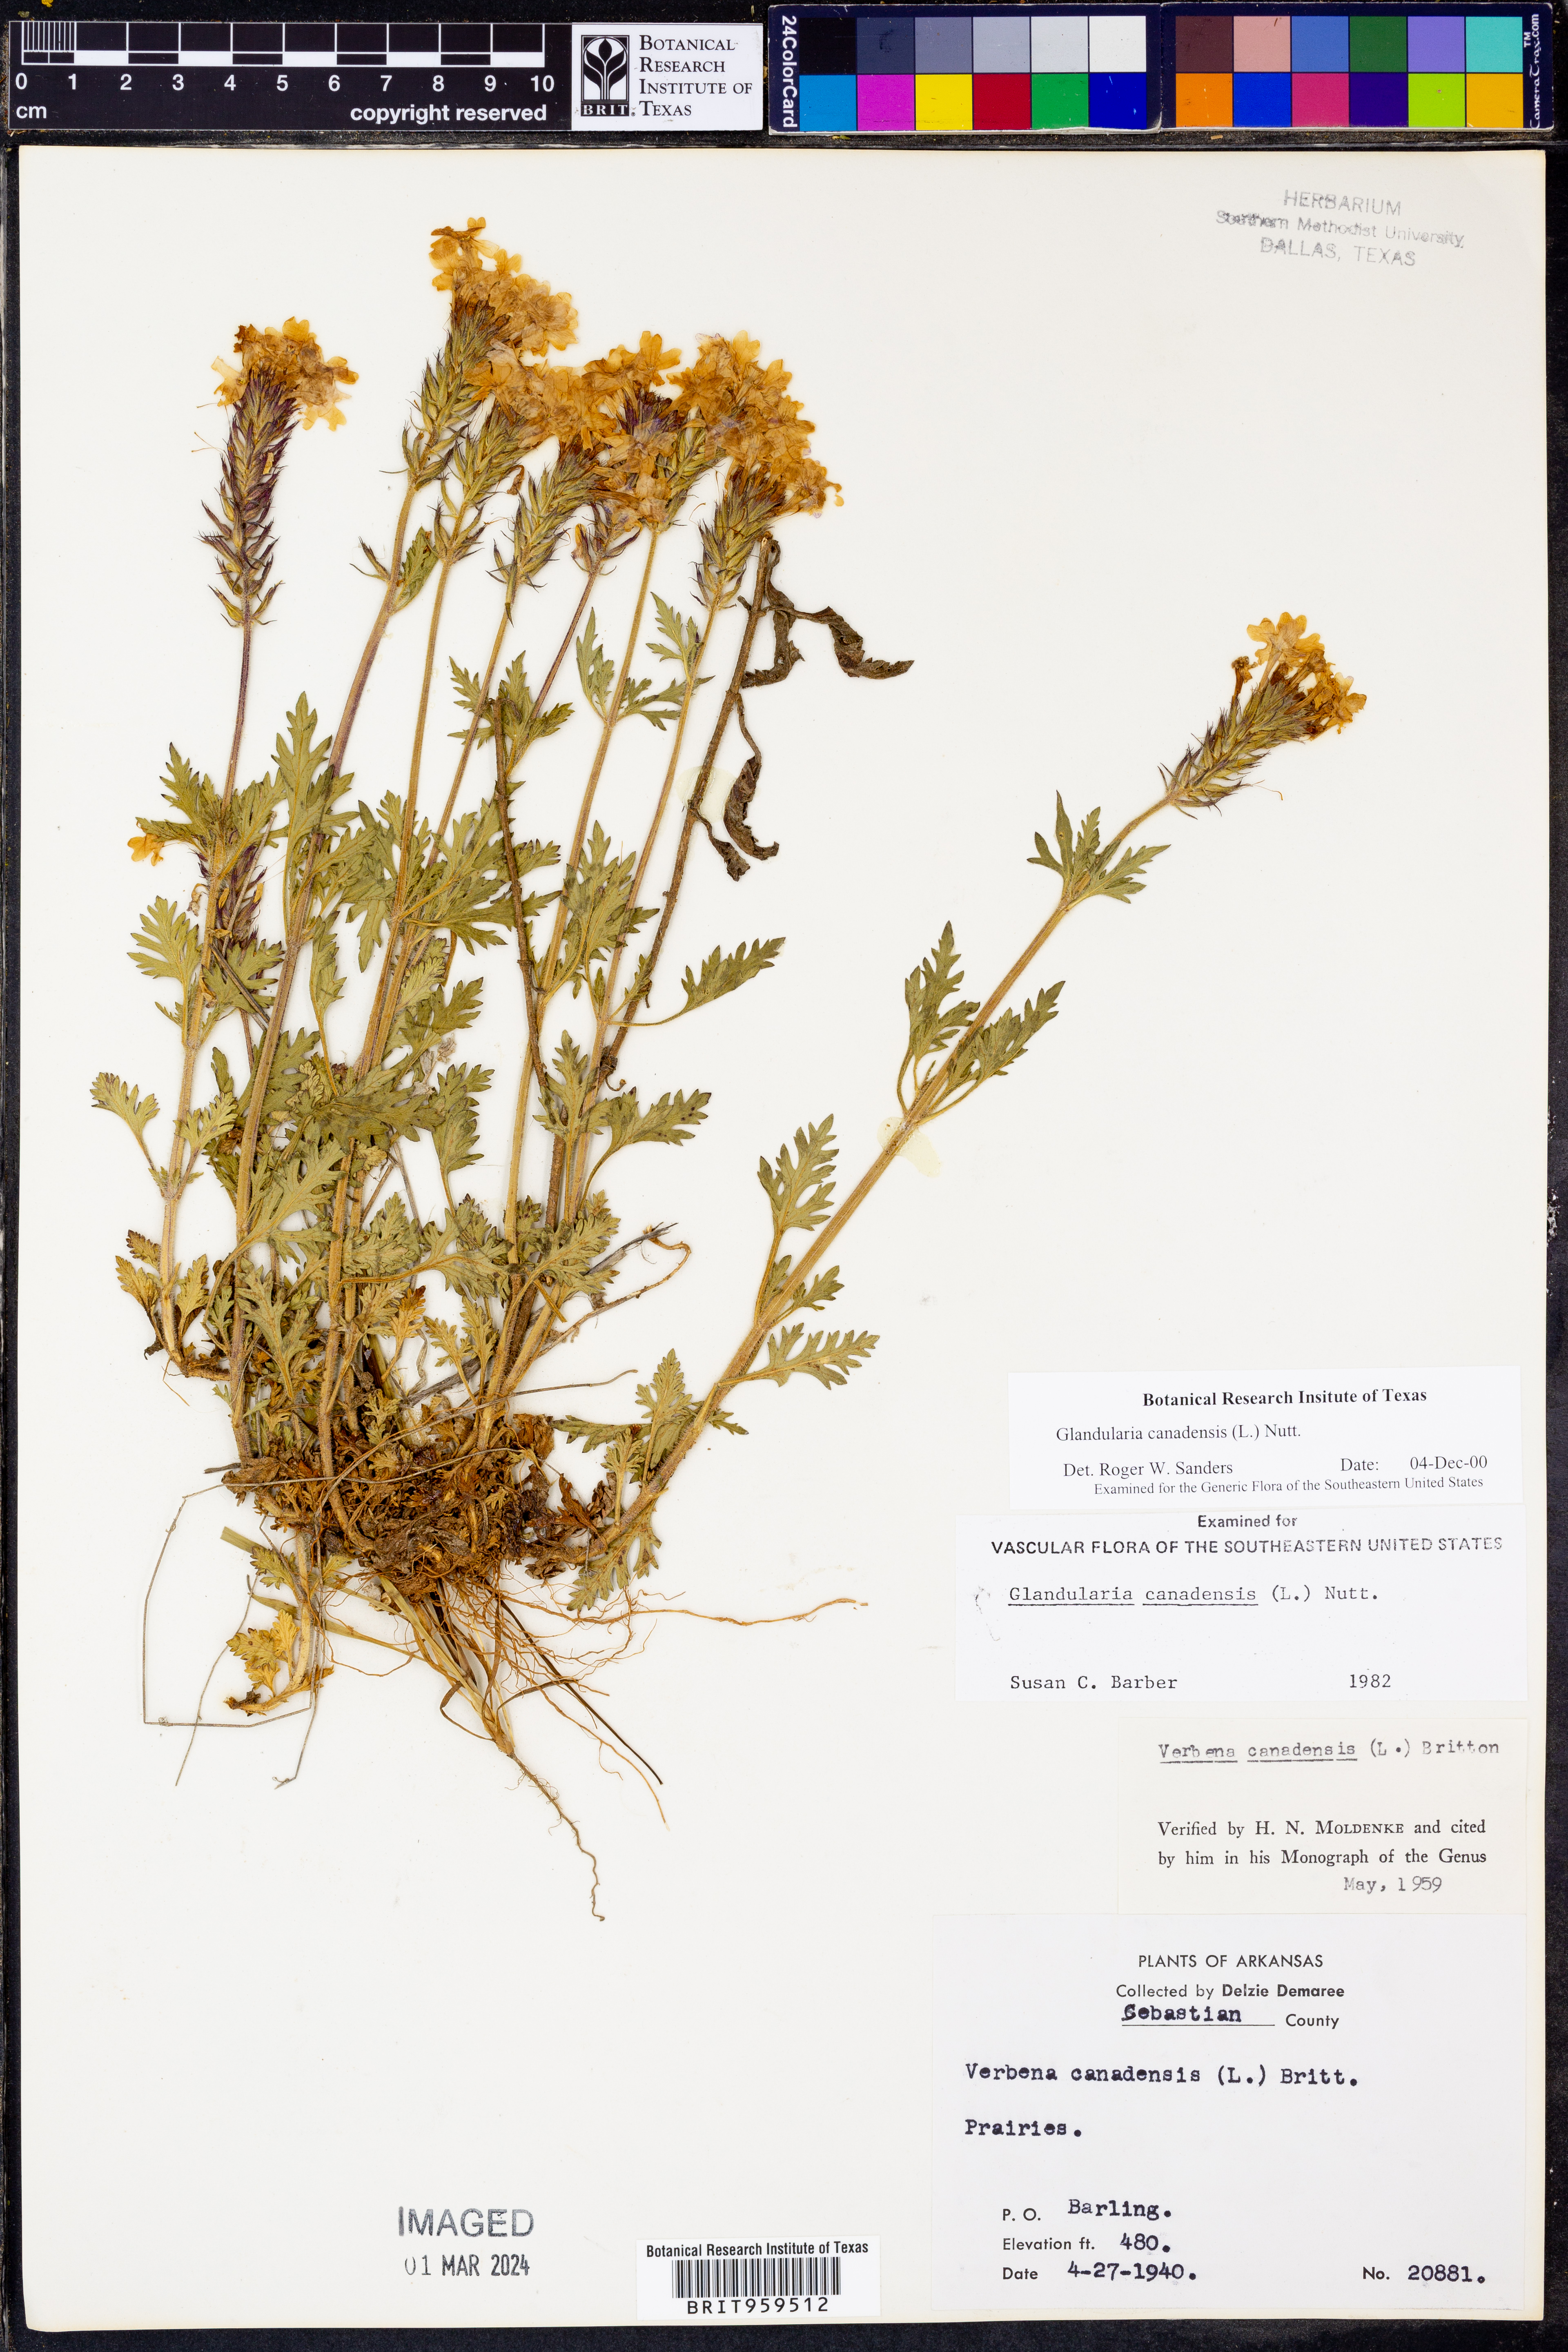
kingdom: Plantae
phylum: Tracheophyta
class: Magnoliopsida
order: Lamiales
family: Verbenaceae
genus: Verbena
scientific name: Verbena canadensis
